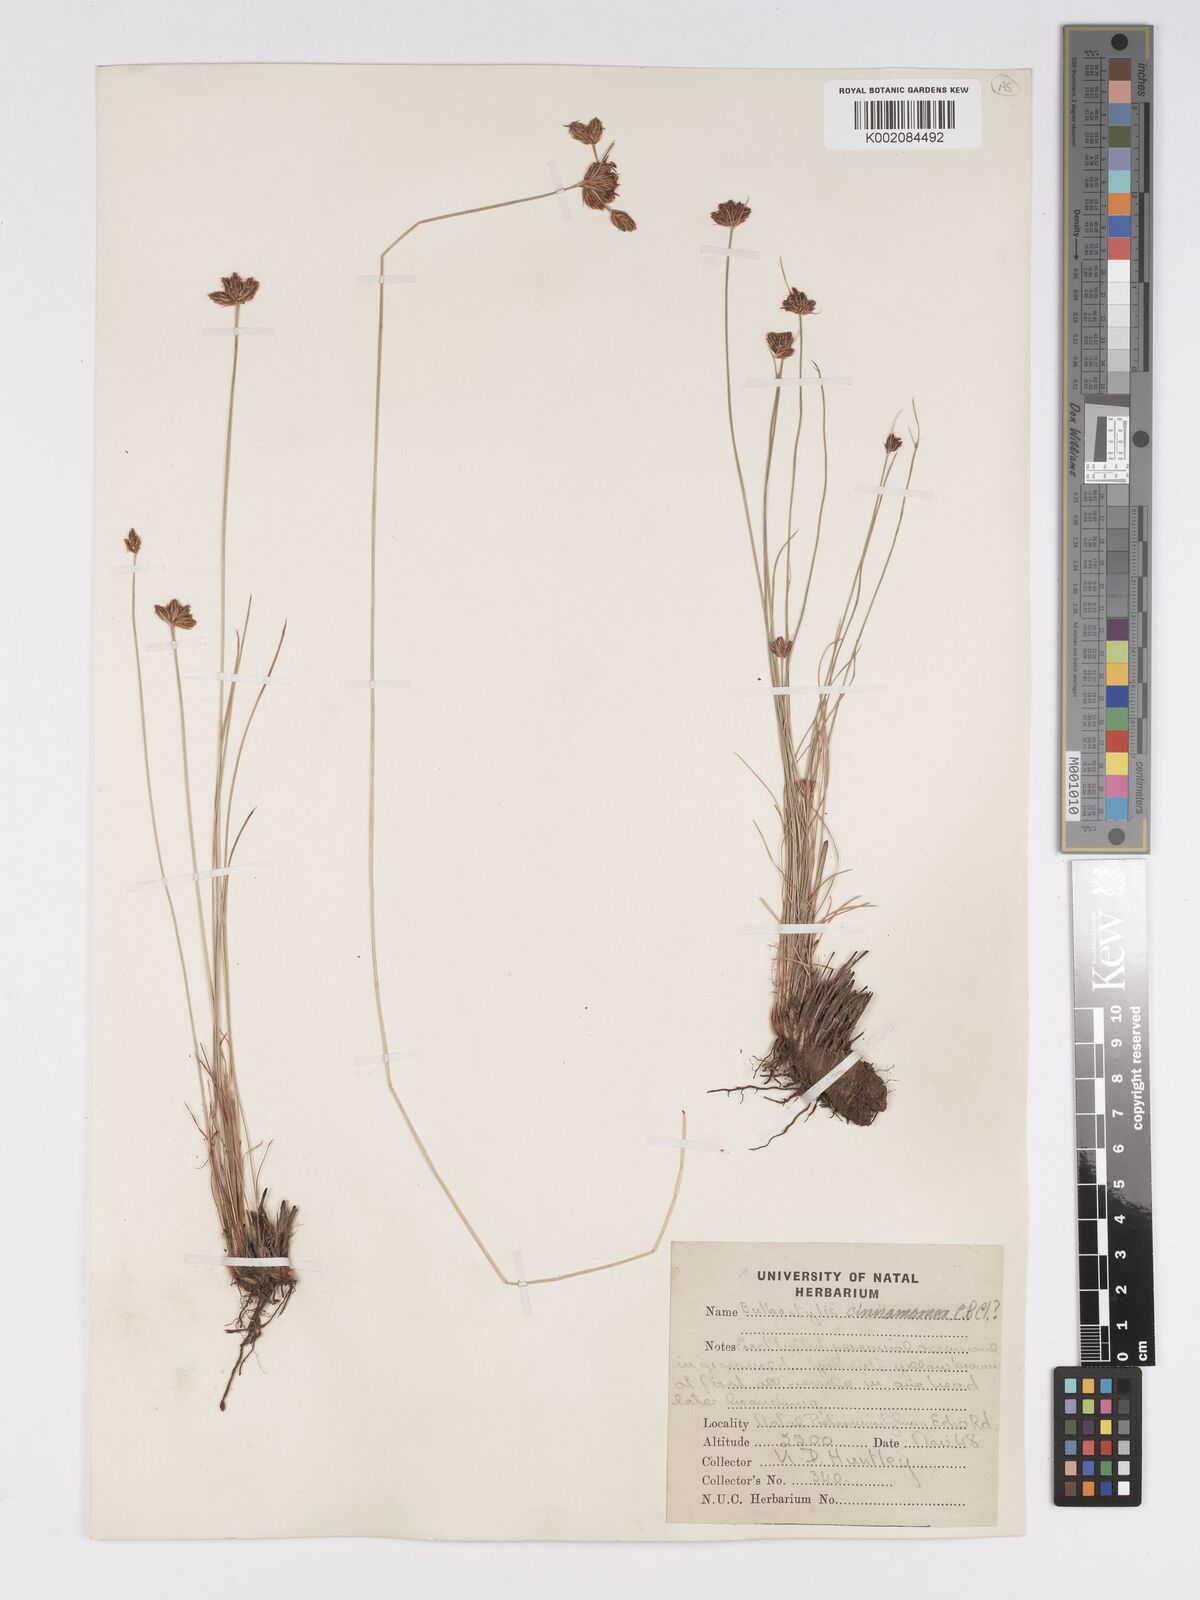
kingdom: Plantae
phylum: Tracheophyta
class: Liliopsida
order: Poales
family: Cyperaceae
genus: Bulbostylis
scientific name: Bulbostylis boeckeleriana
